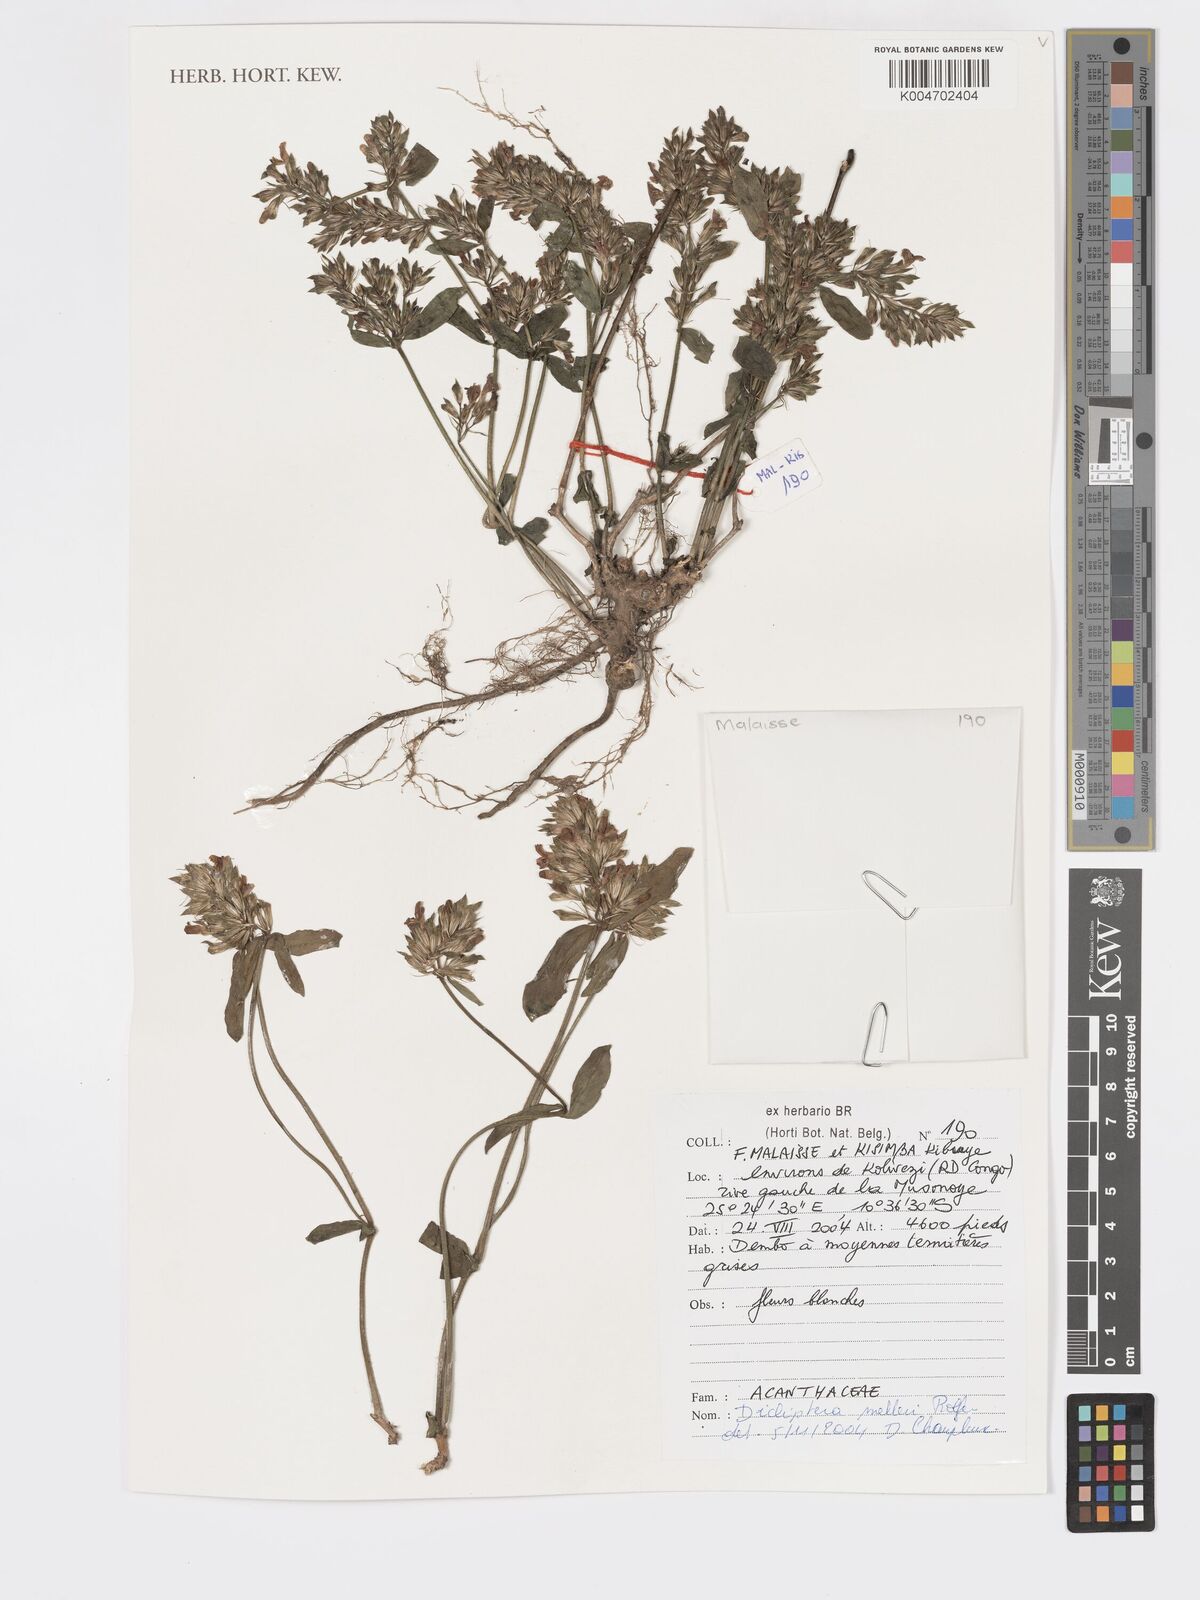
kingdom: Plantae
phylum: Tracheophyta
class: Magnoliopsida
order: Lamiales
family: Acanthaceae
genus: Dicliptera
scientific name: Dicliptera melleri
